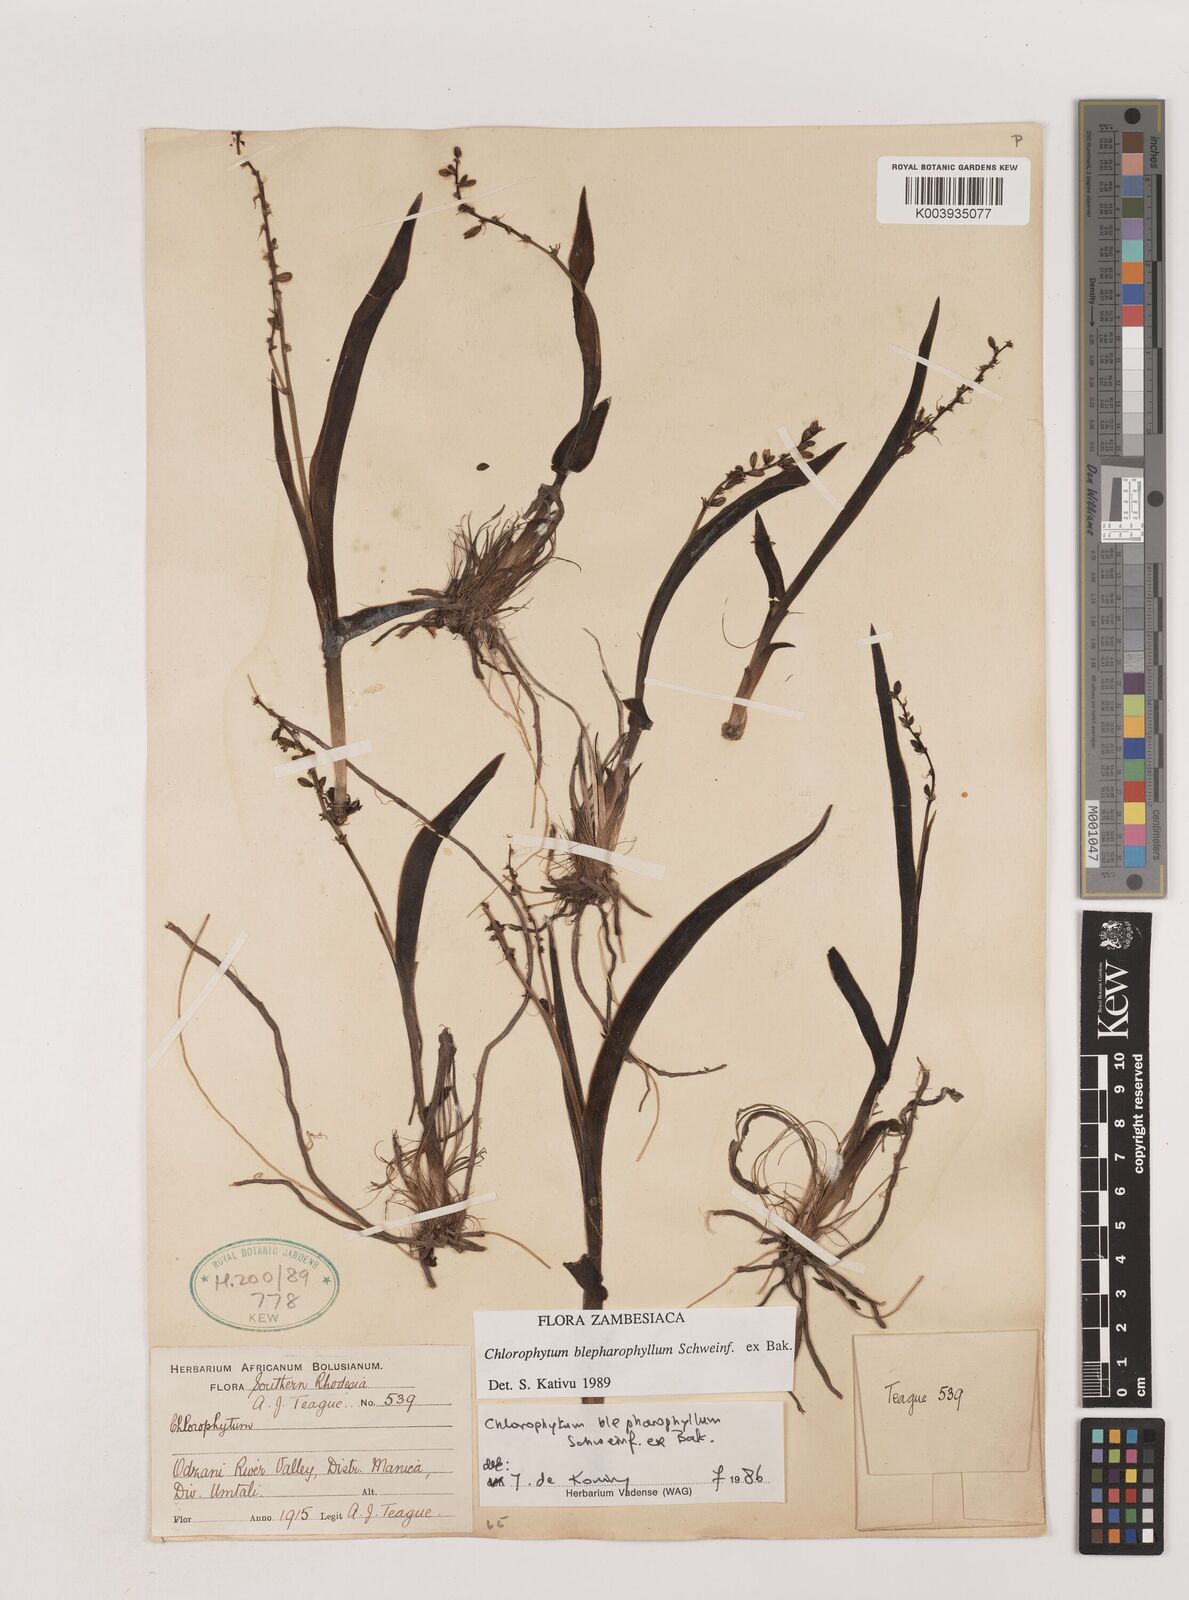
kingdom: Plantae
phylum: Tracheophyta
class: Liliopsida
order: Asparagales
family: Asparagaceae
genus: Chlorophytum
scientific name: Chlorophytum blepharophyllum
